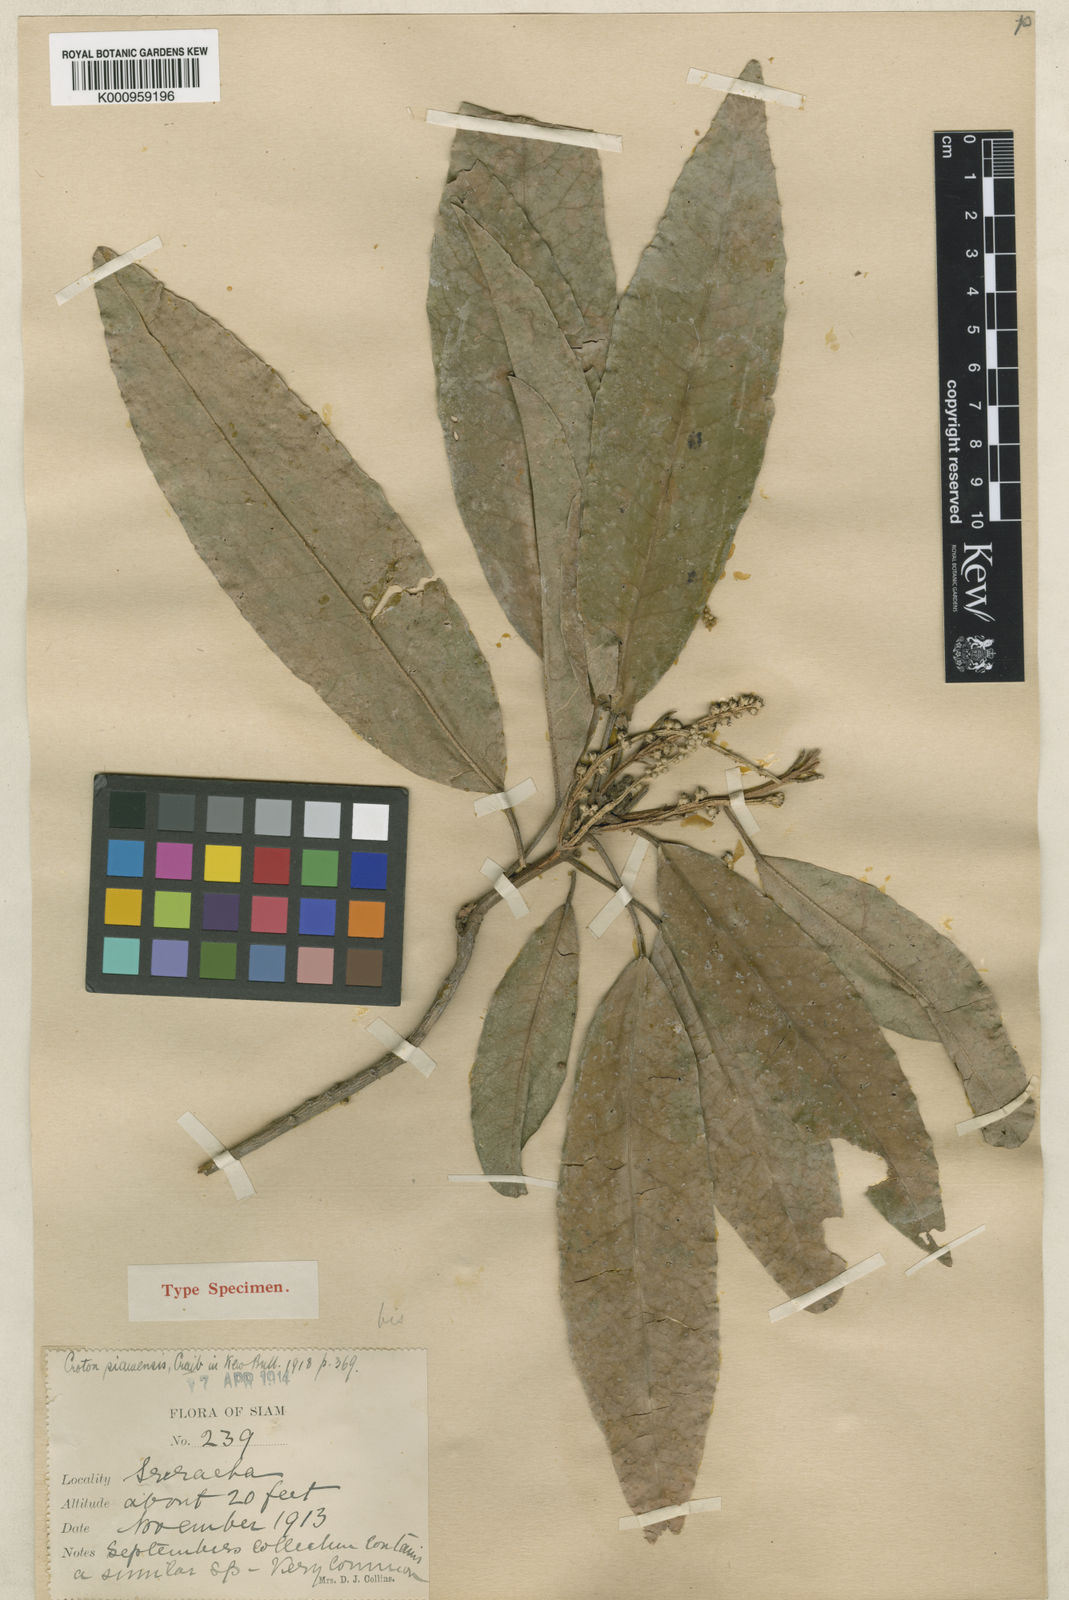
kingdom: Plantae
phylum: Tracheophyta
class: Magnoliopsida
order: Malpighiales
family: Euphorbiaceae
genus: Croton
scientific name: Croton robustus
